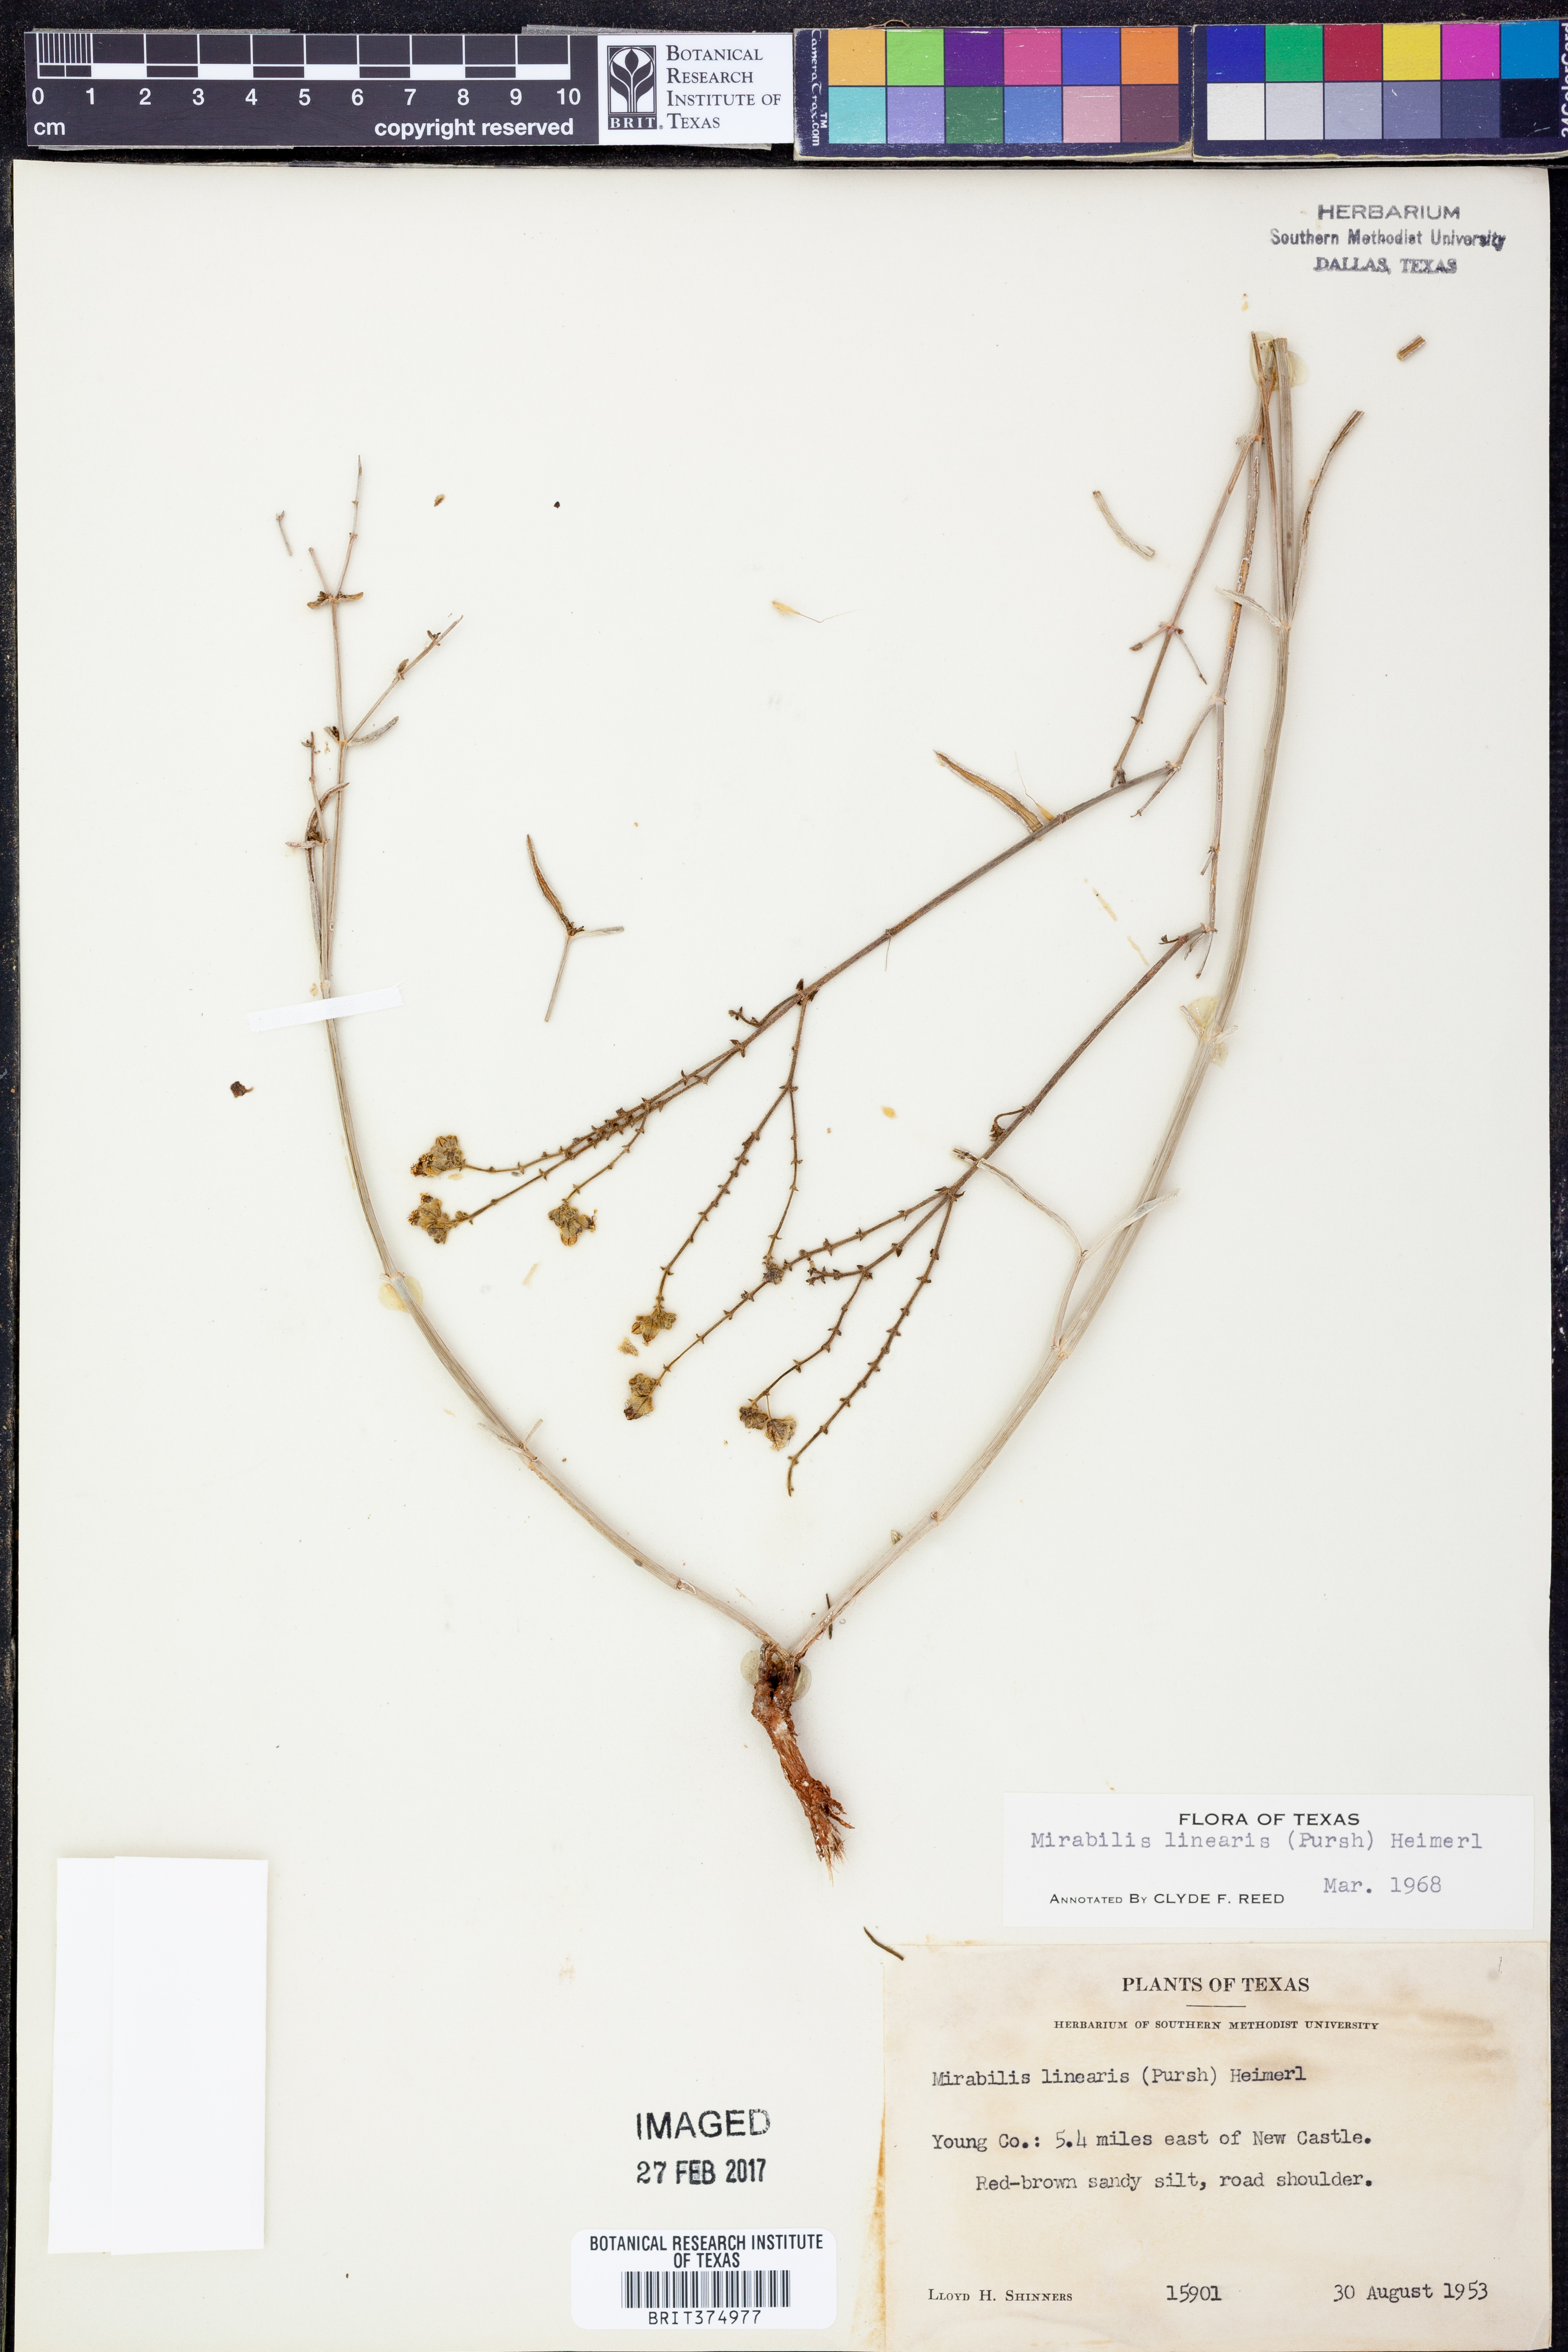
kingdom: Plantae
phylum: Tracheophyta
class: Magnoliopsida
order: Caryophyllales
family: Nyctaginaceae
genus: Mirabilis
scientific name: Mirabilis linearis
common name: Linear-leaved four-o'clock
